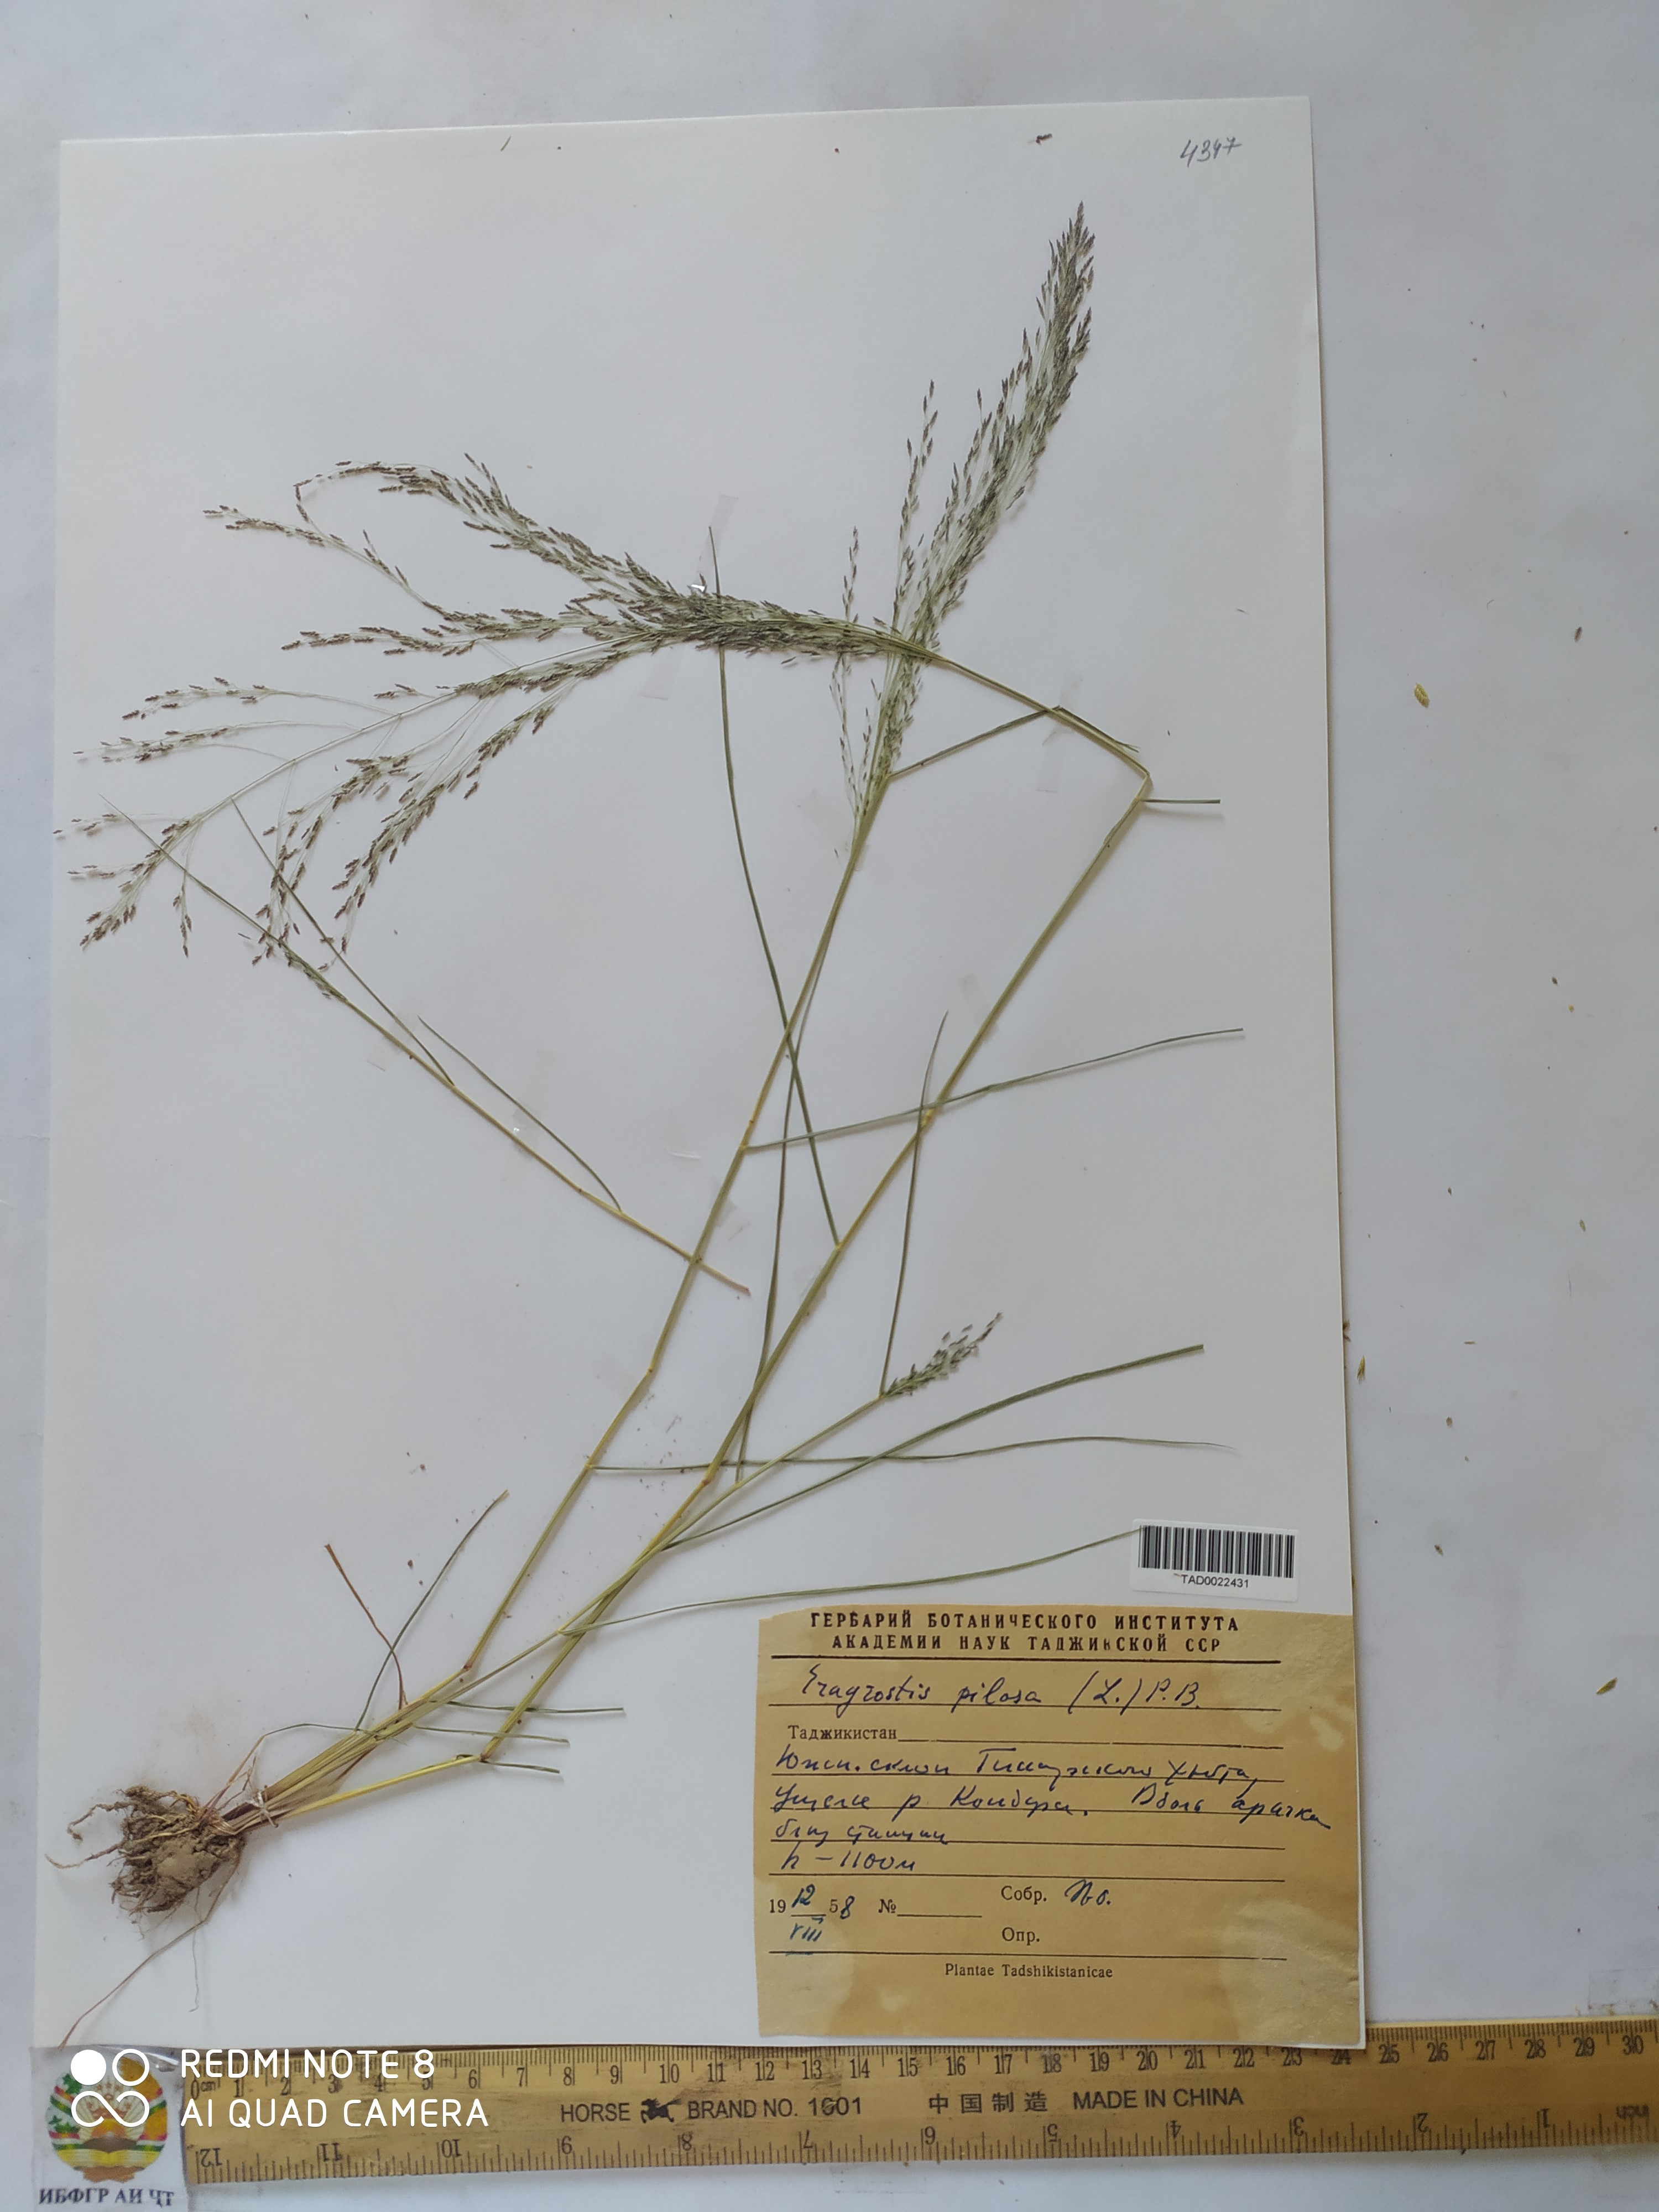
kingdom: Plantae
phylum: Tracheophyta
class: Liliopsida
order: Poales
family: Poaceae
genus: Eragrostis
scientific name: Eragrostis pilosa
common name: Indian lovegrass
